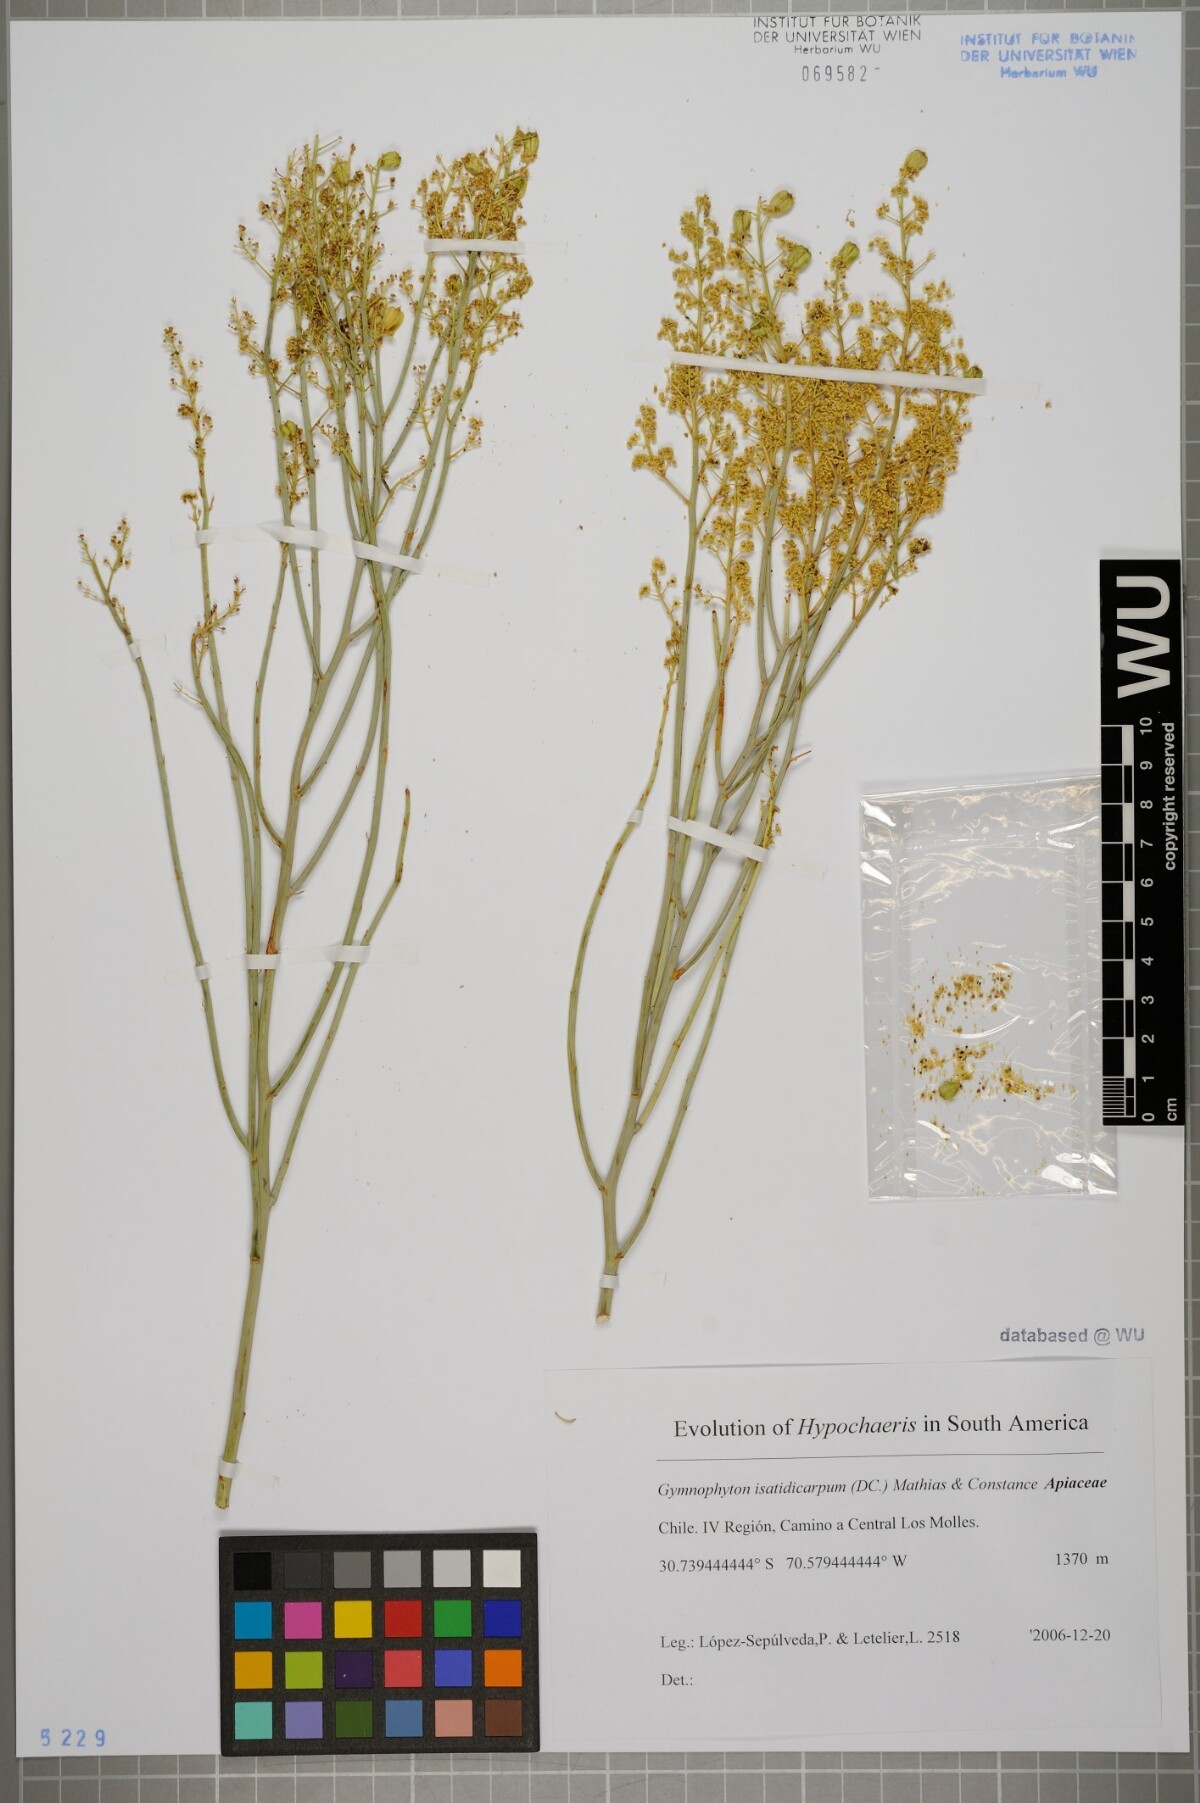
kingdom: Plantae
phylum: Tracheophyta
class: Magnoliopsida
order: Apiales
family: Apiaceae
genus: Gymnophyton
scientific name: Gymnophyton isatidicarpum
